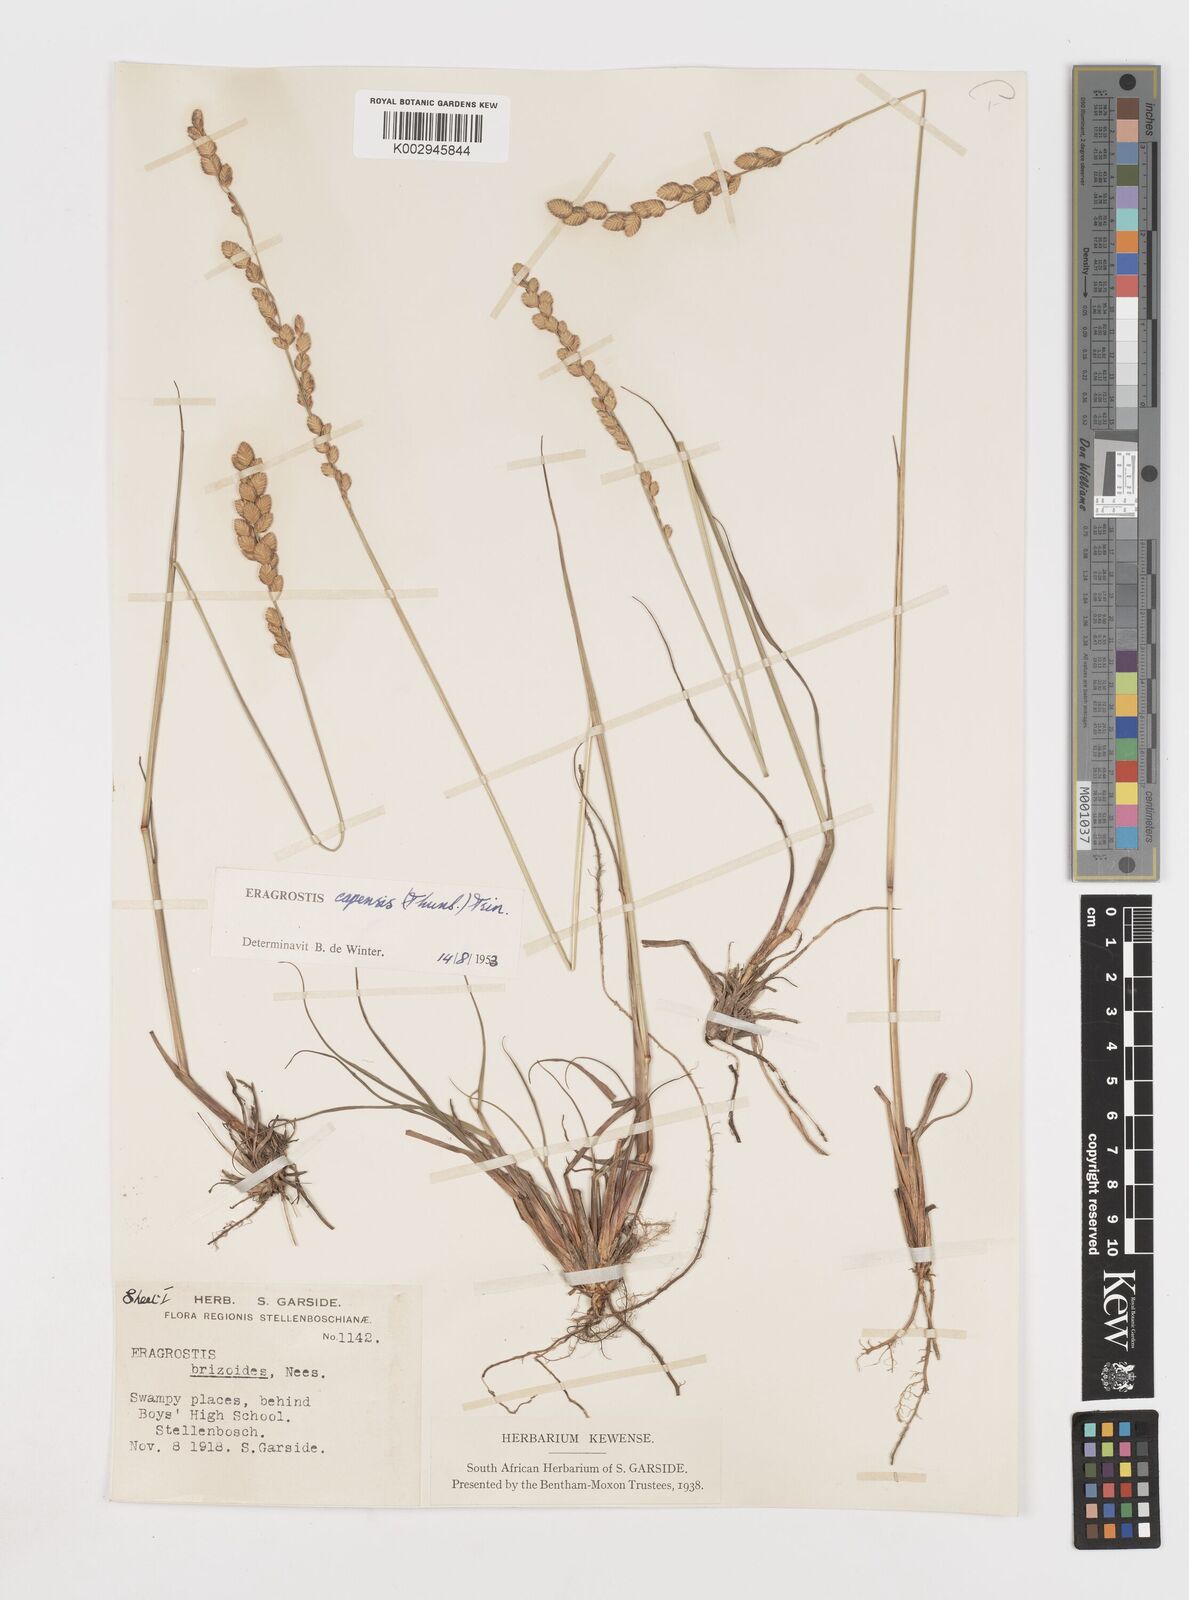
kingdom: Plantae
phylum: Tracheophyta
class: Liliopsida
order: Poales
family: Poaceae
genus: Eragrostis
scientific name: Eragrostis capensis
